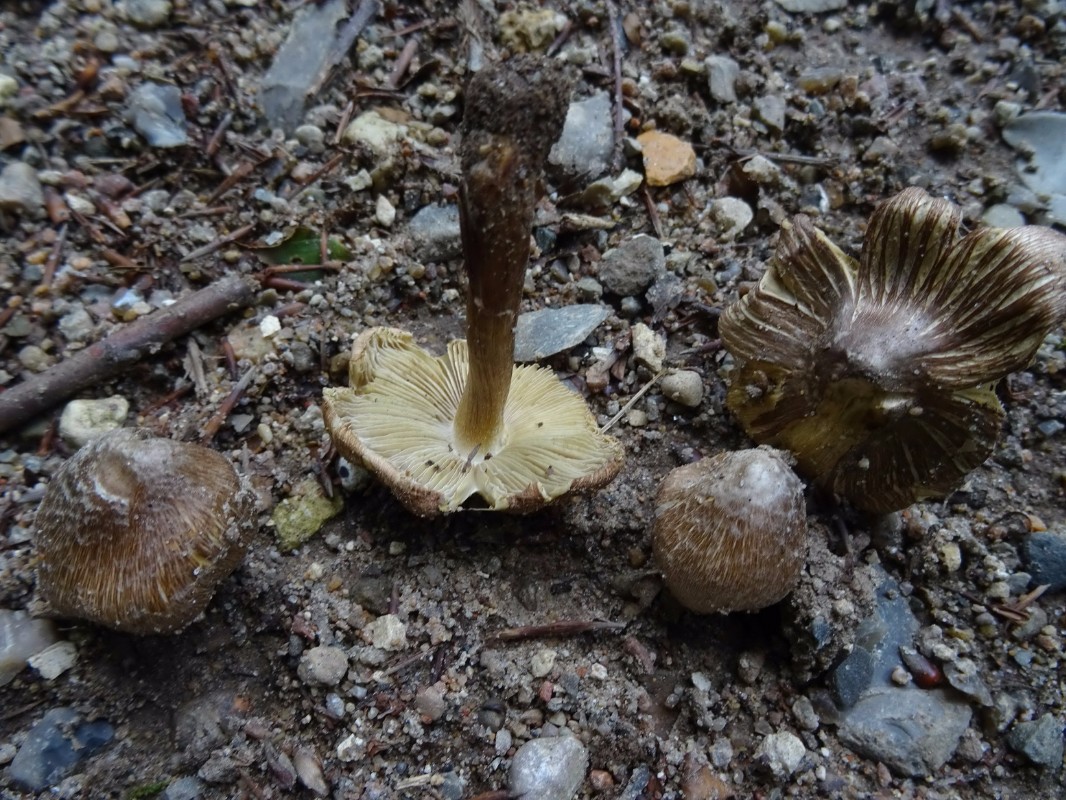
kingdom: Fungi
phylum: Basidiomycota
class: Agaricomycetes
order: Agaricales
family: Inocybaceae
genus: Inosperma
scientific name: Inosperma
